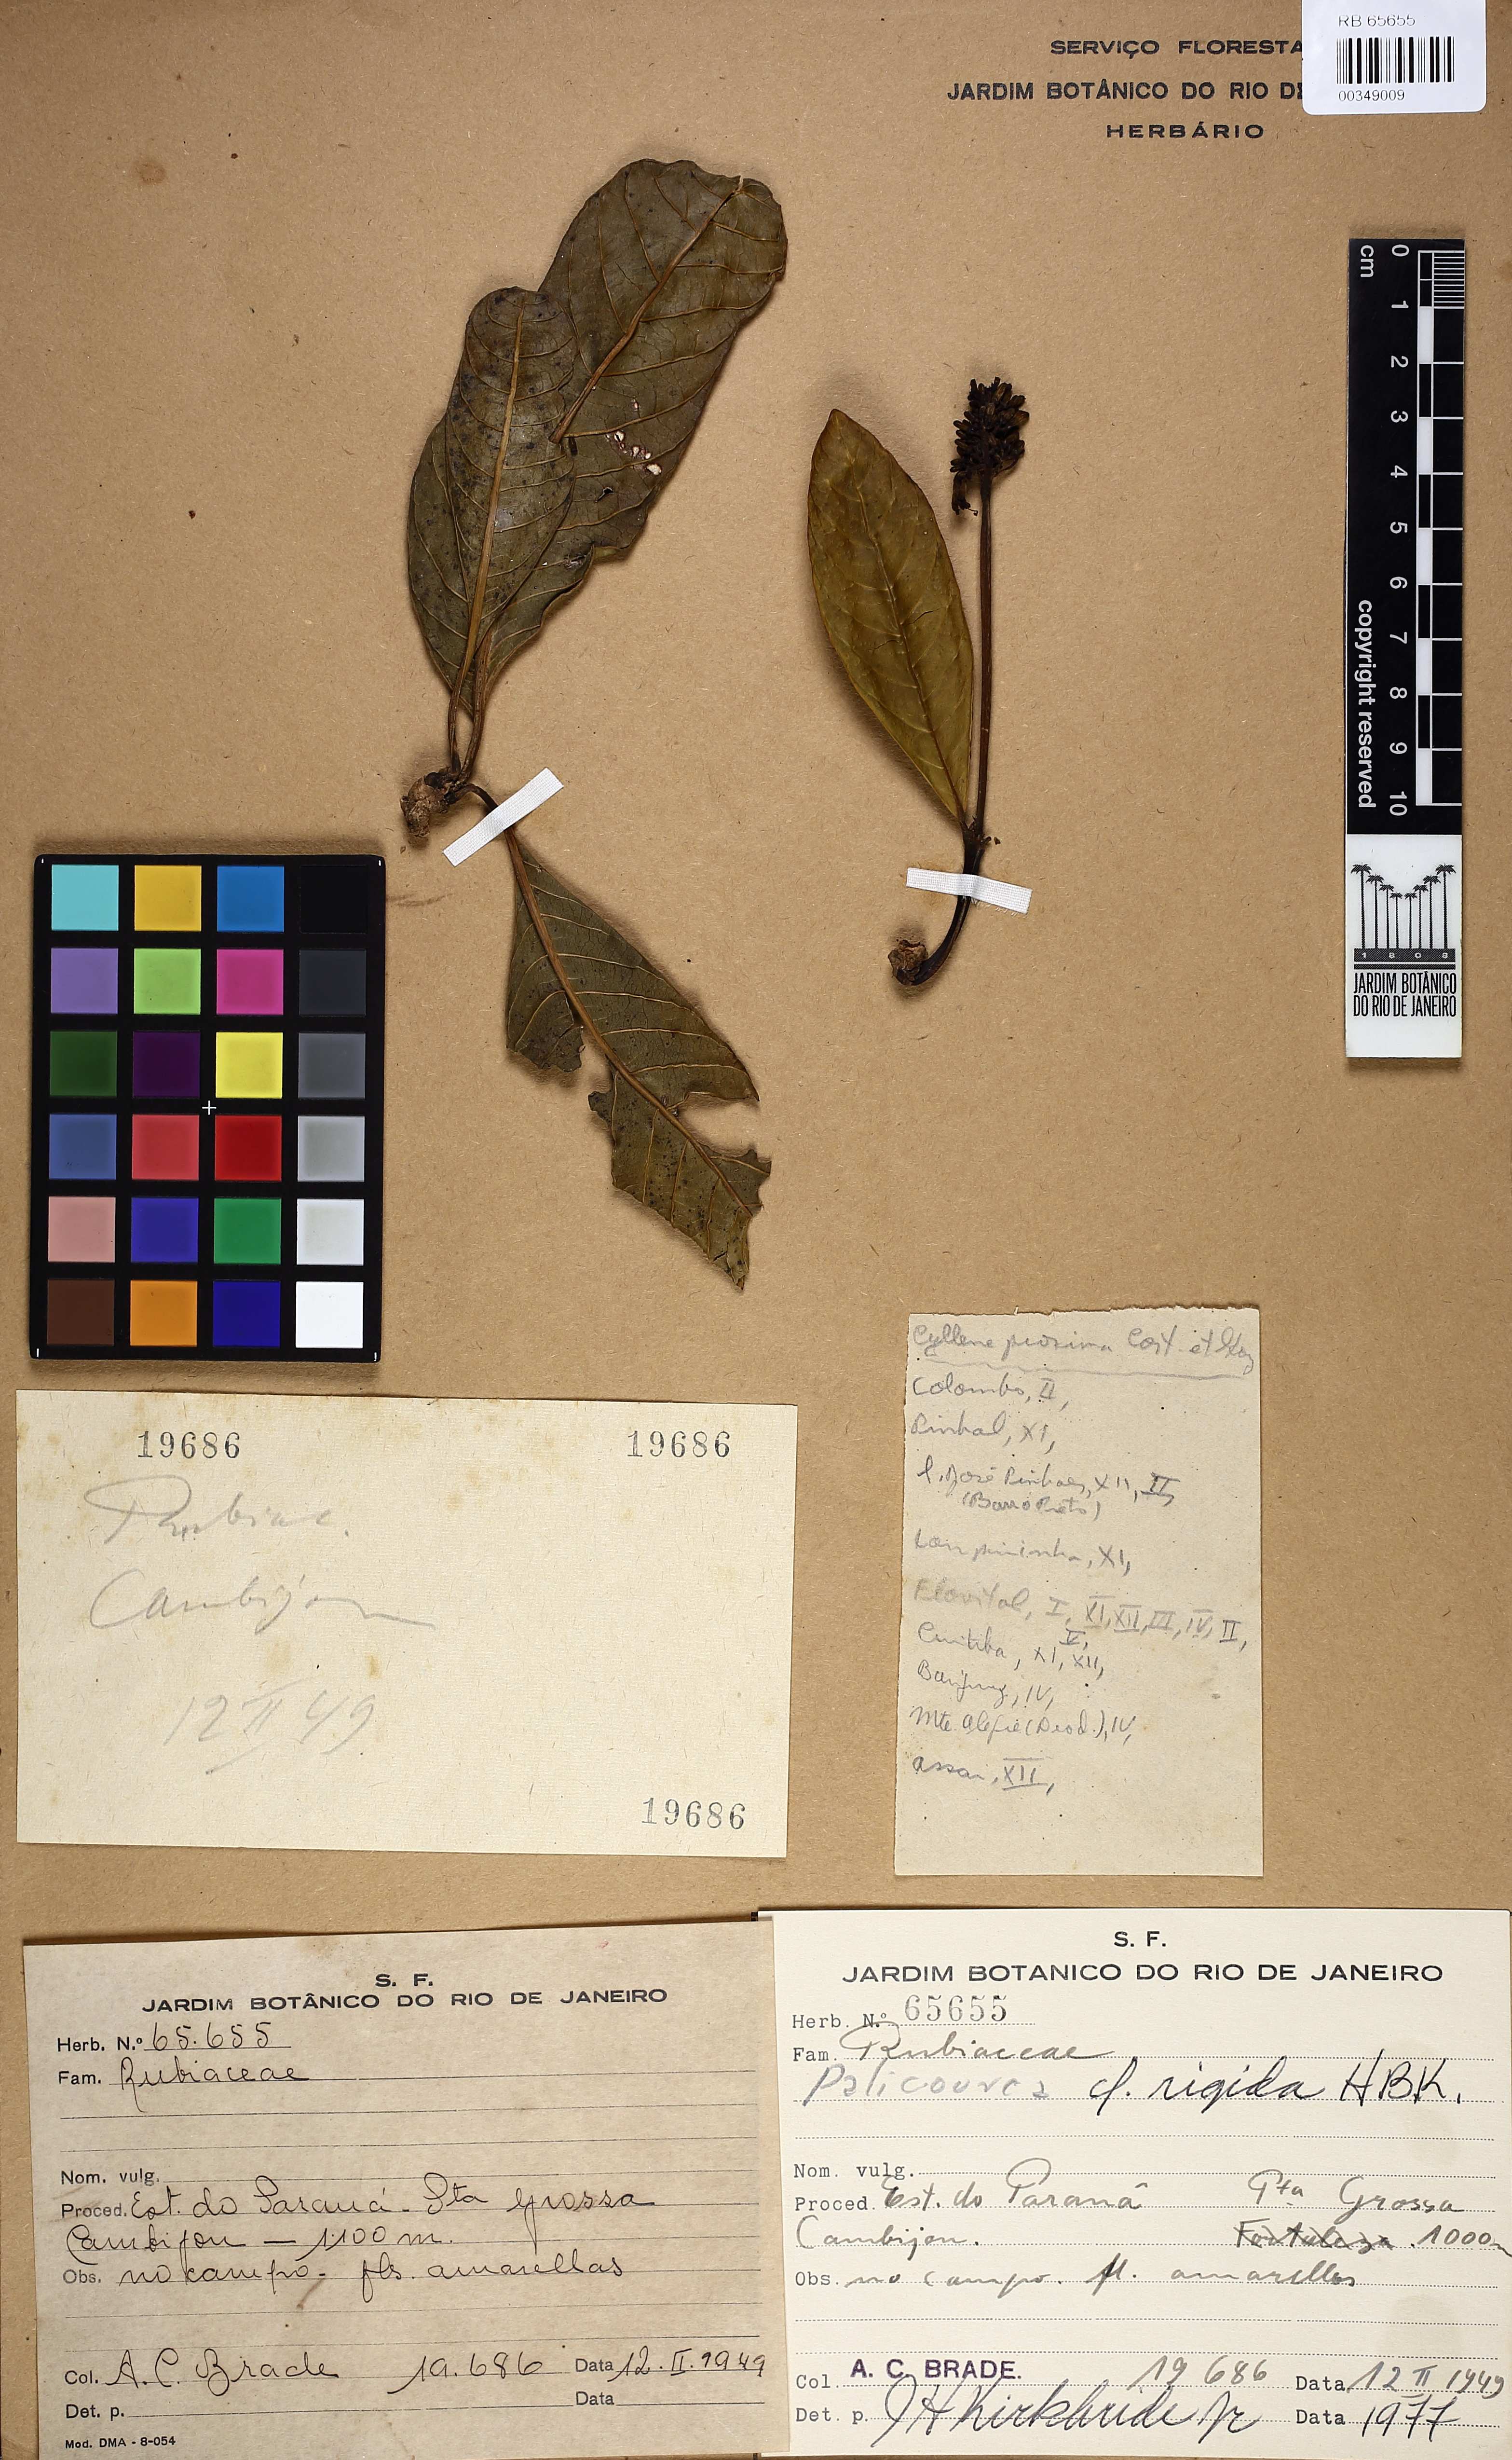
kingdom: Plantae
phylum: Tracheophyta
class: Magnoliopsida
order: Gentianales
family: Rubiaceae
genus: Palicourea
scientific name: Palicourea rigida
